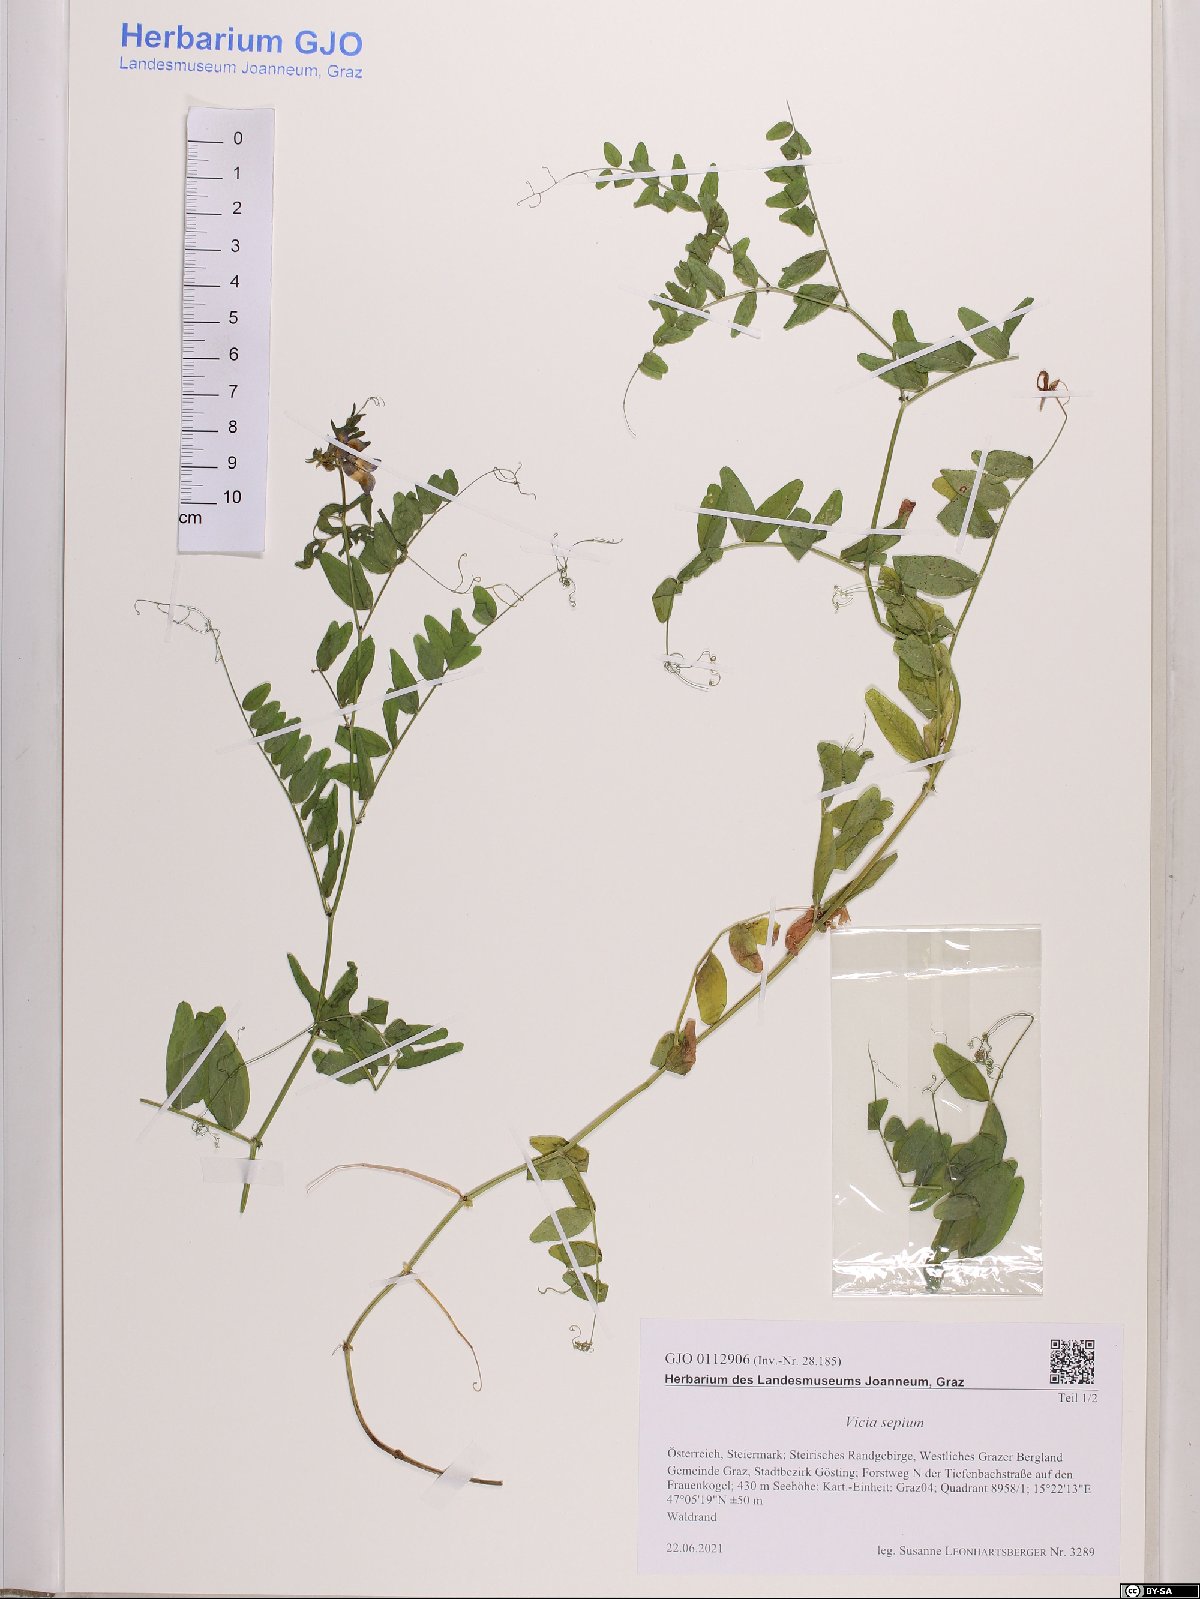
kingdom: Plantae
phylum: Tracheophyta
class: Magnoliopsida
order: Fabales
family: Fabaceae
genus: Vicia
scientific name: Vicia sepium
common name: Bush vetch
